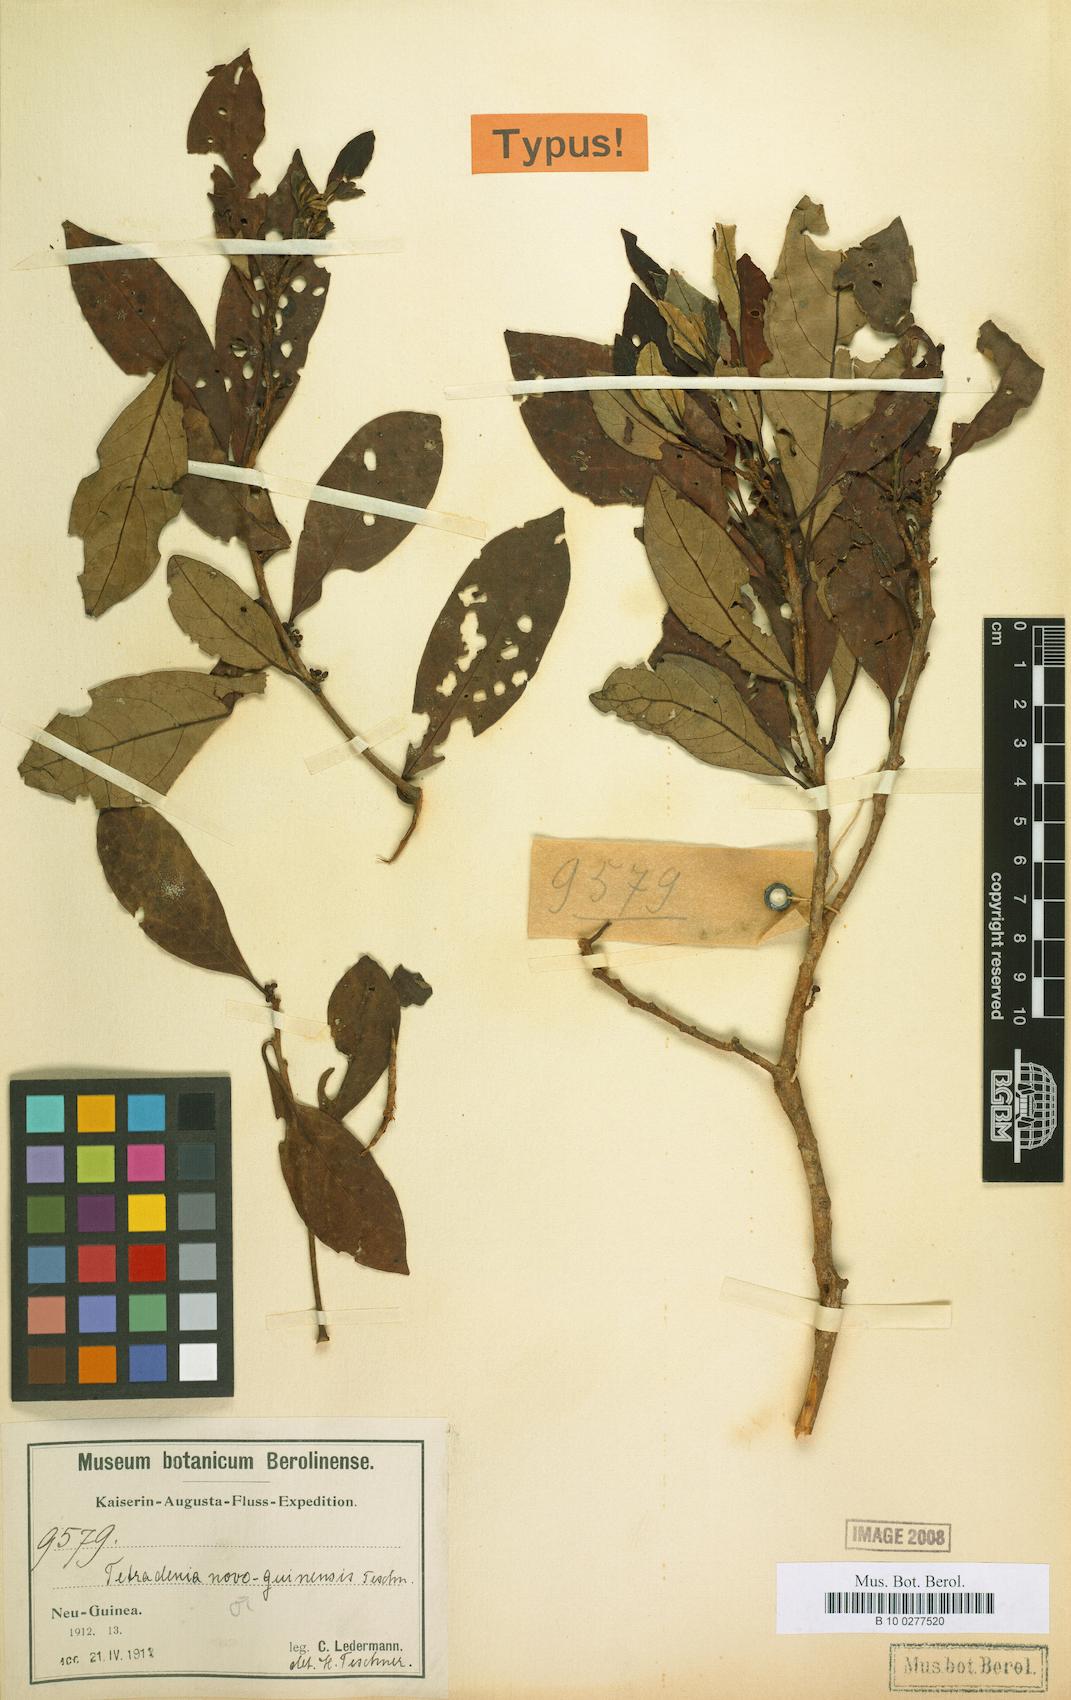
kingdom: Plantae
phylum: Tracheophyta
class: Magnoliopsida
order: Laurales
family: Lauraceae
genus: Litsea
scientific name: Litsea teschneri
